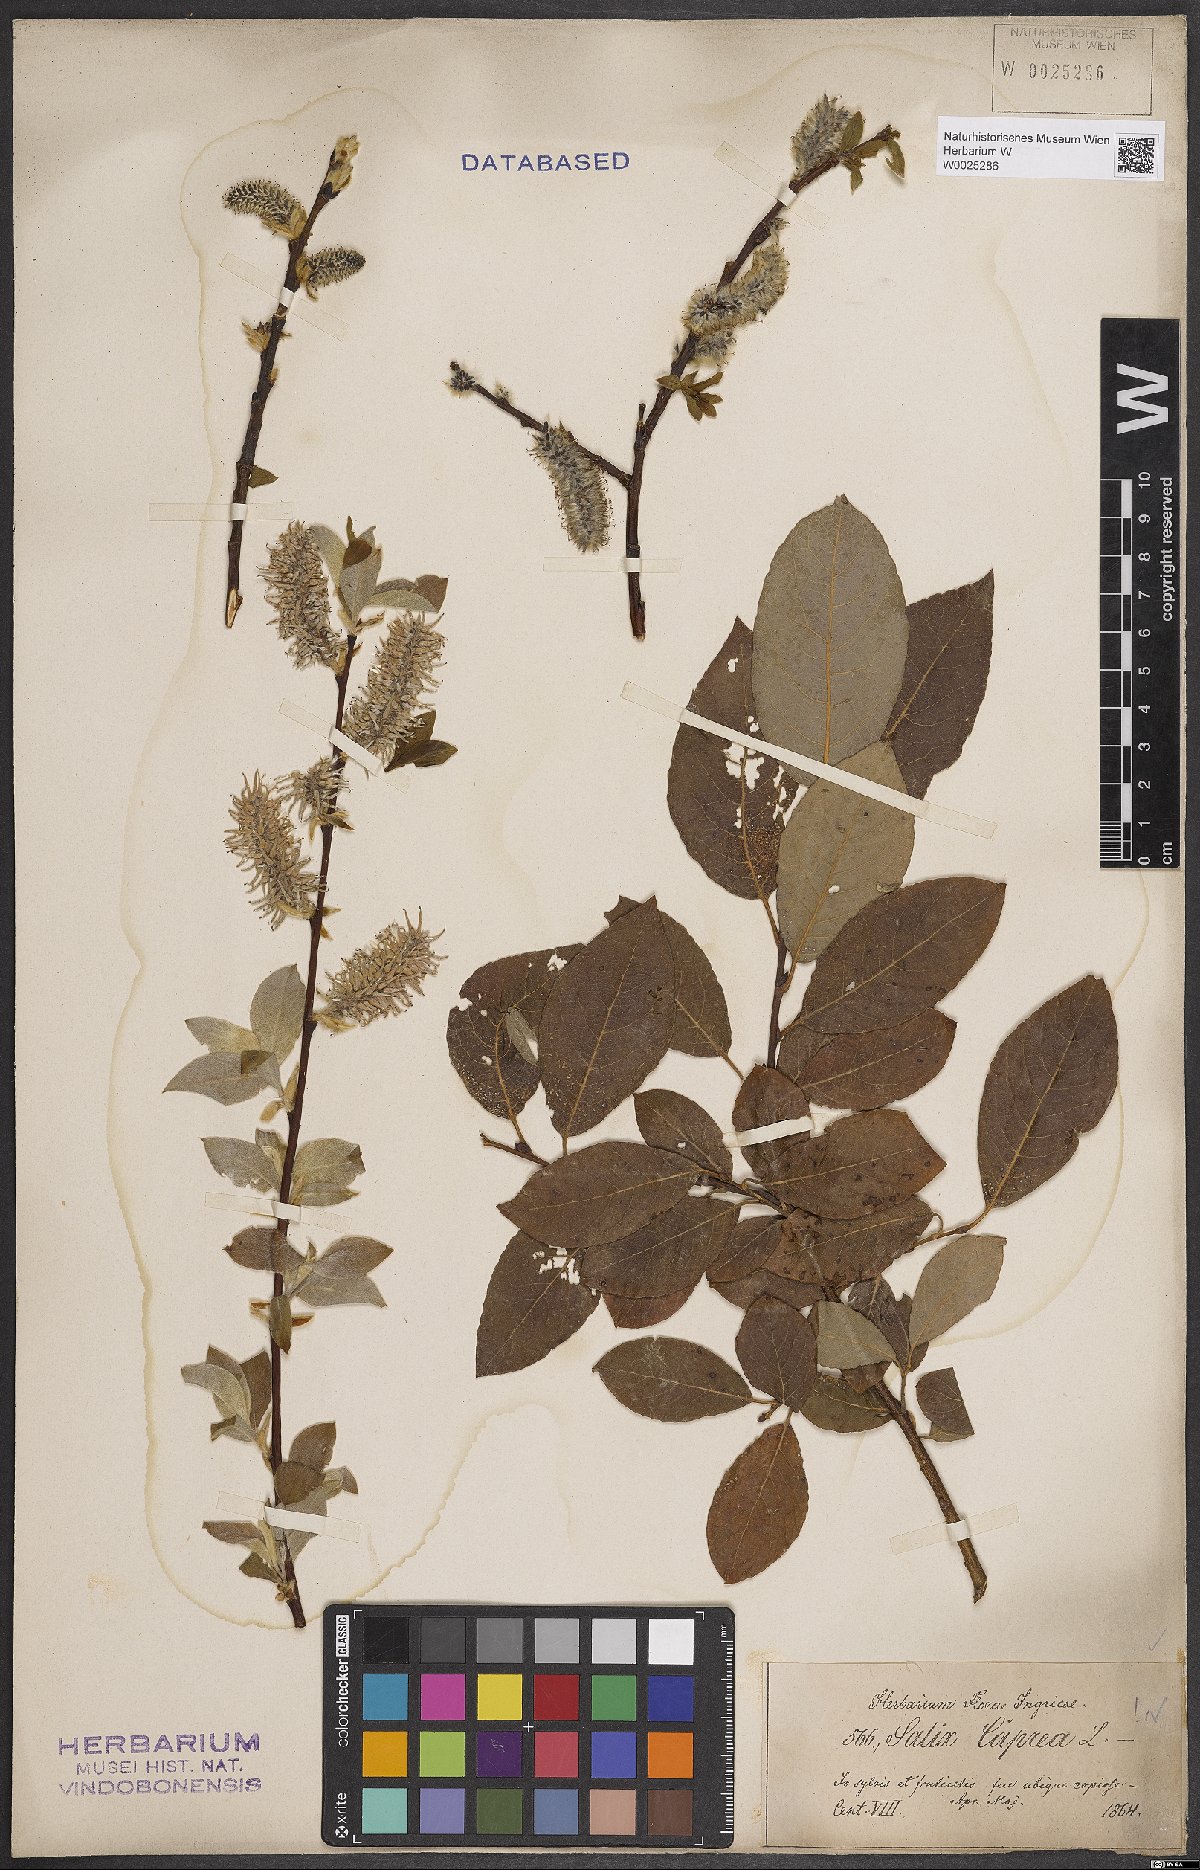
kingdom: Plantae
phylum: Tracheophyta
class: Magnoliopsida
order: Malpighiales
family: Salicaceae
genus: Salix
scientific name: Salix caprea
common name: Goat willow
